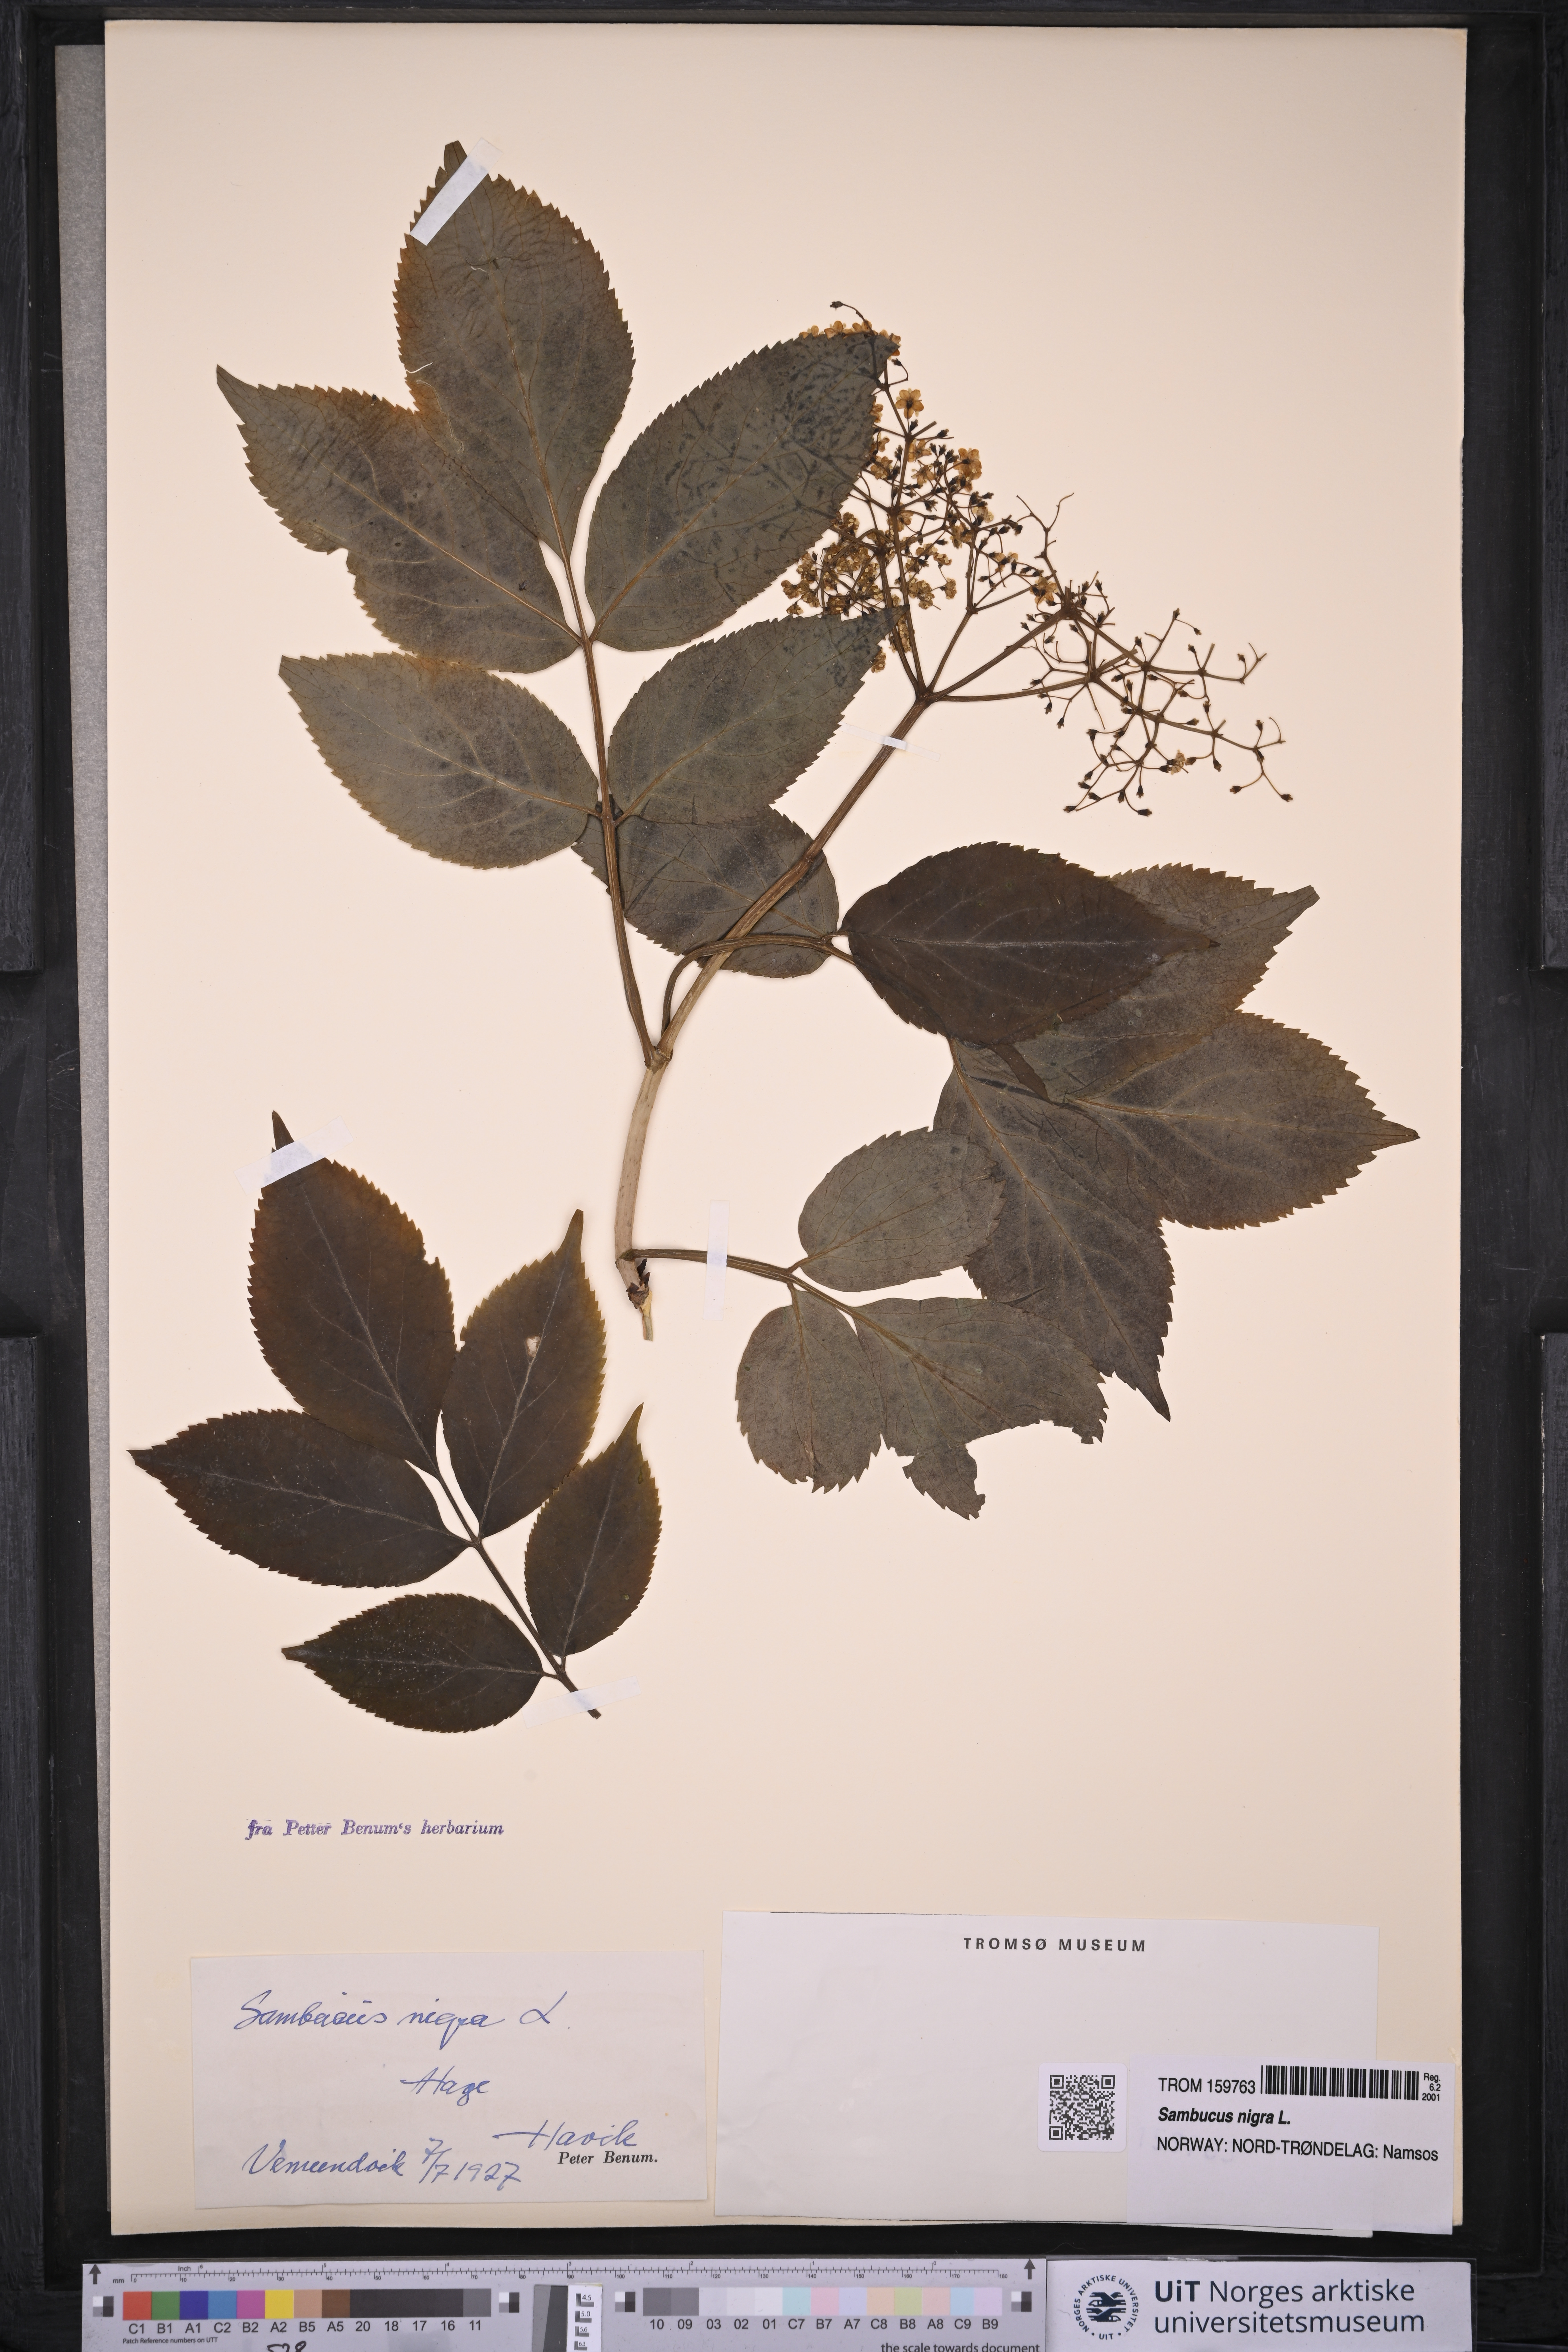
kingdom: Plantae
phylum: Tracheophyta
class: Magnoliopsida
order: Dipsacales
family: Viburnaceae
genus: Sambucus
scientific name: Sambucus nigra
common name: Elder
